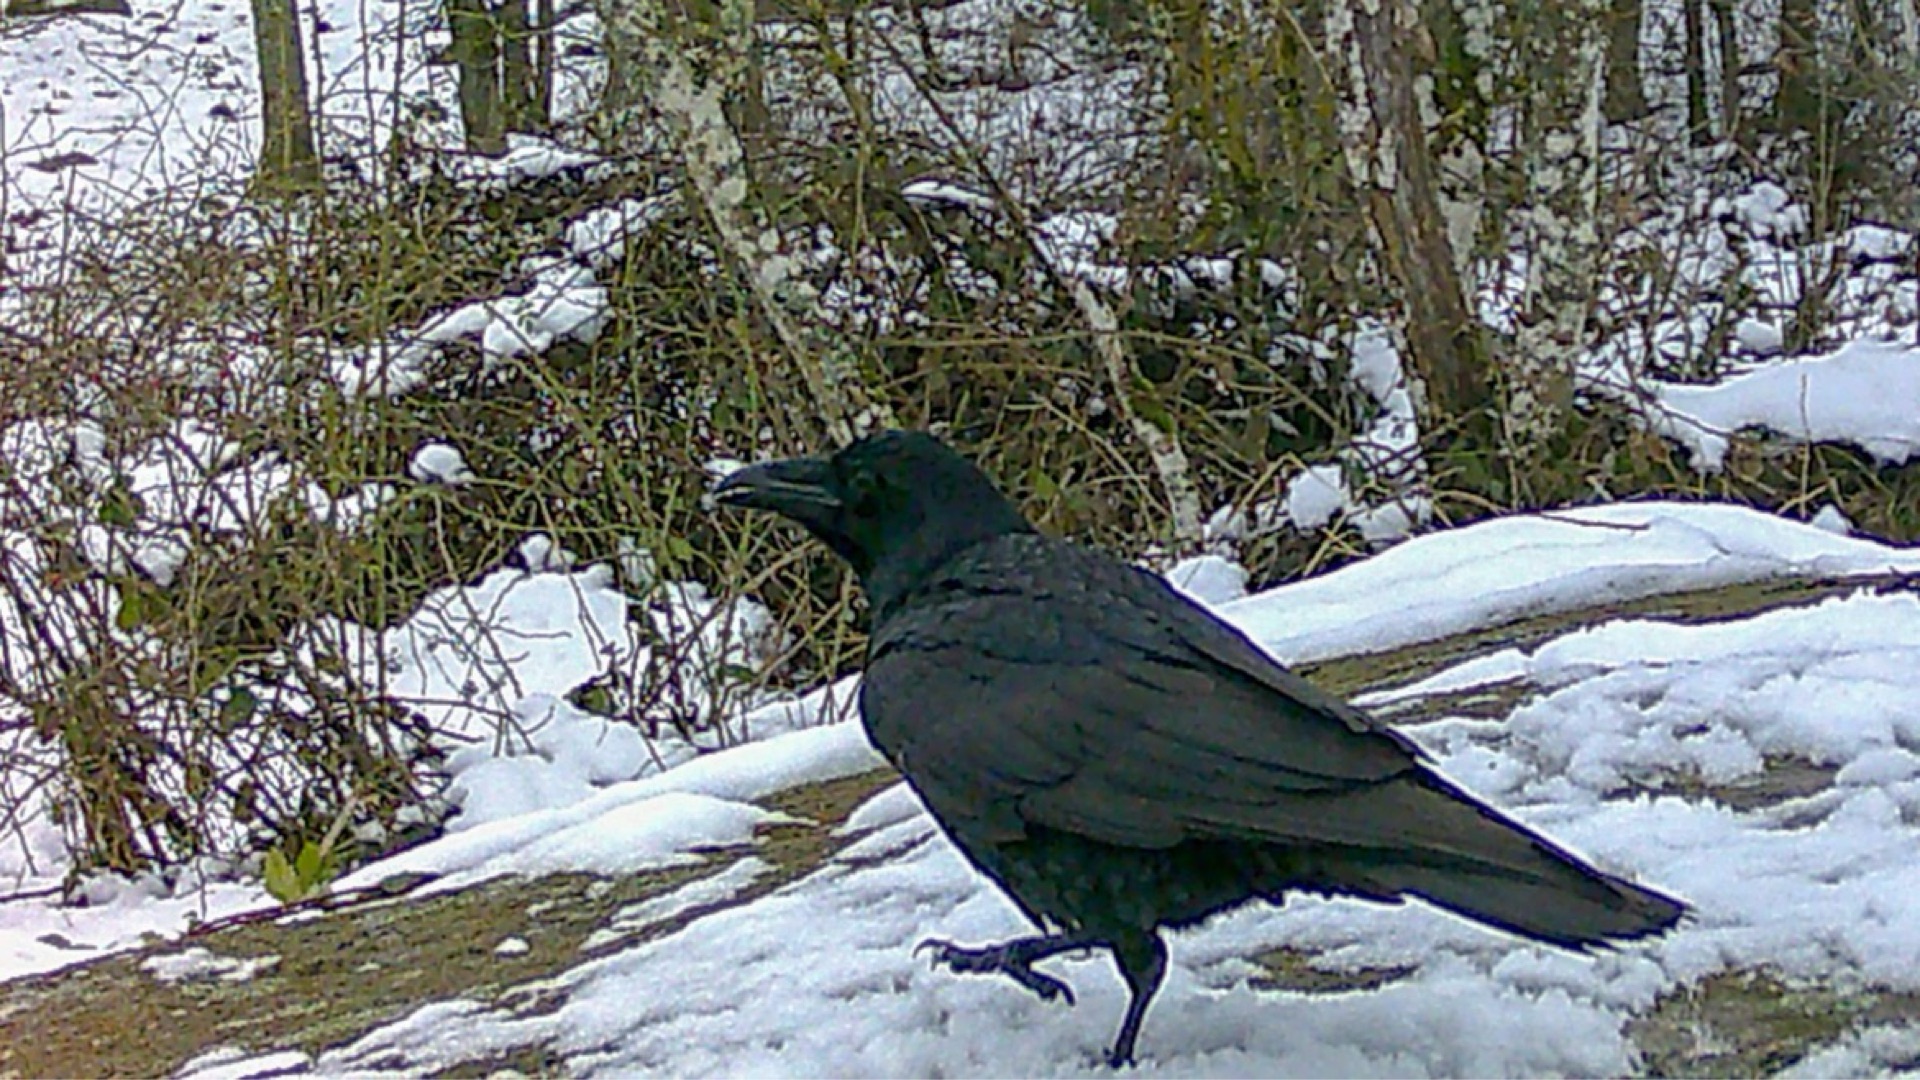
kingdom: Animalia
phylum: Chordata
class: Aves
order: Passeriformes
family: Corvidae
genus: Corvus
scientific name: Corvus corax
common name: Ravn
